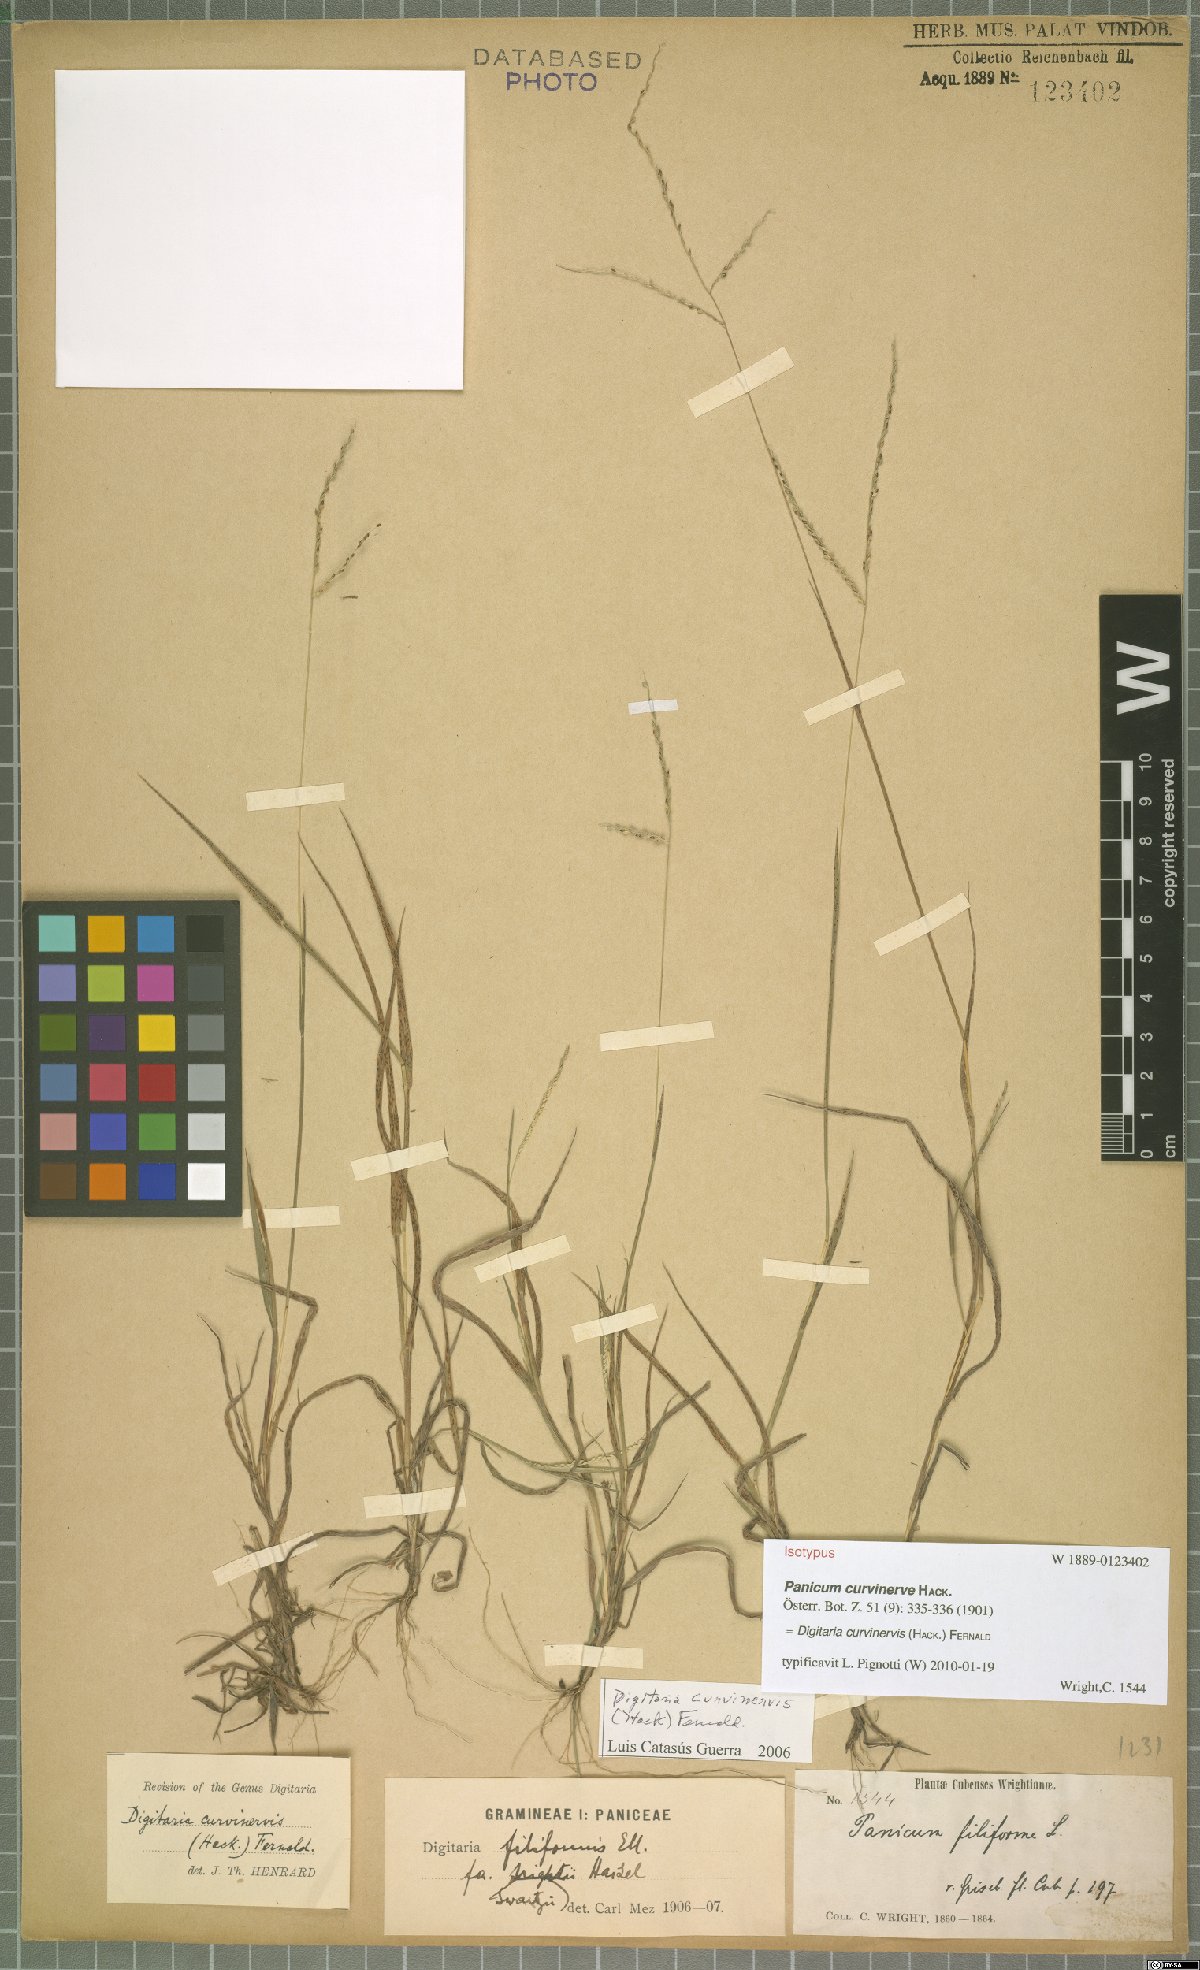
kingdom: Plantae
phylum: Tracheophyta
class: Liliopsida
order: Poales
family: Poaceae
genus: Digitaria
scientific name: Digitaria curvinervis
